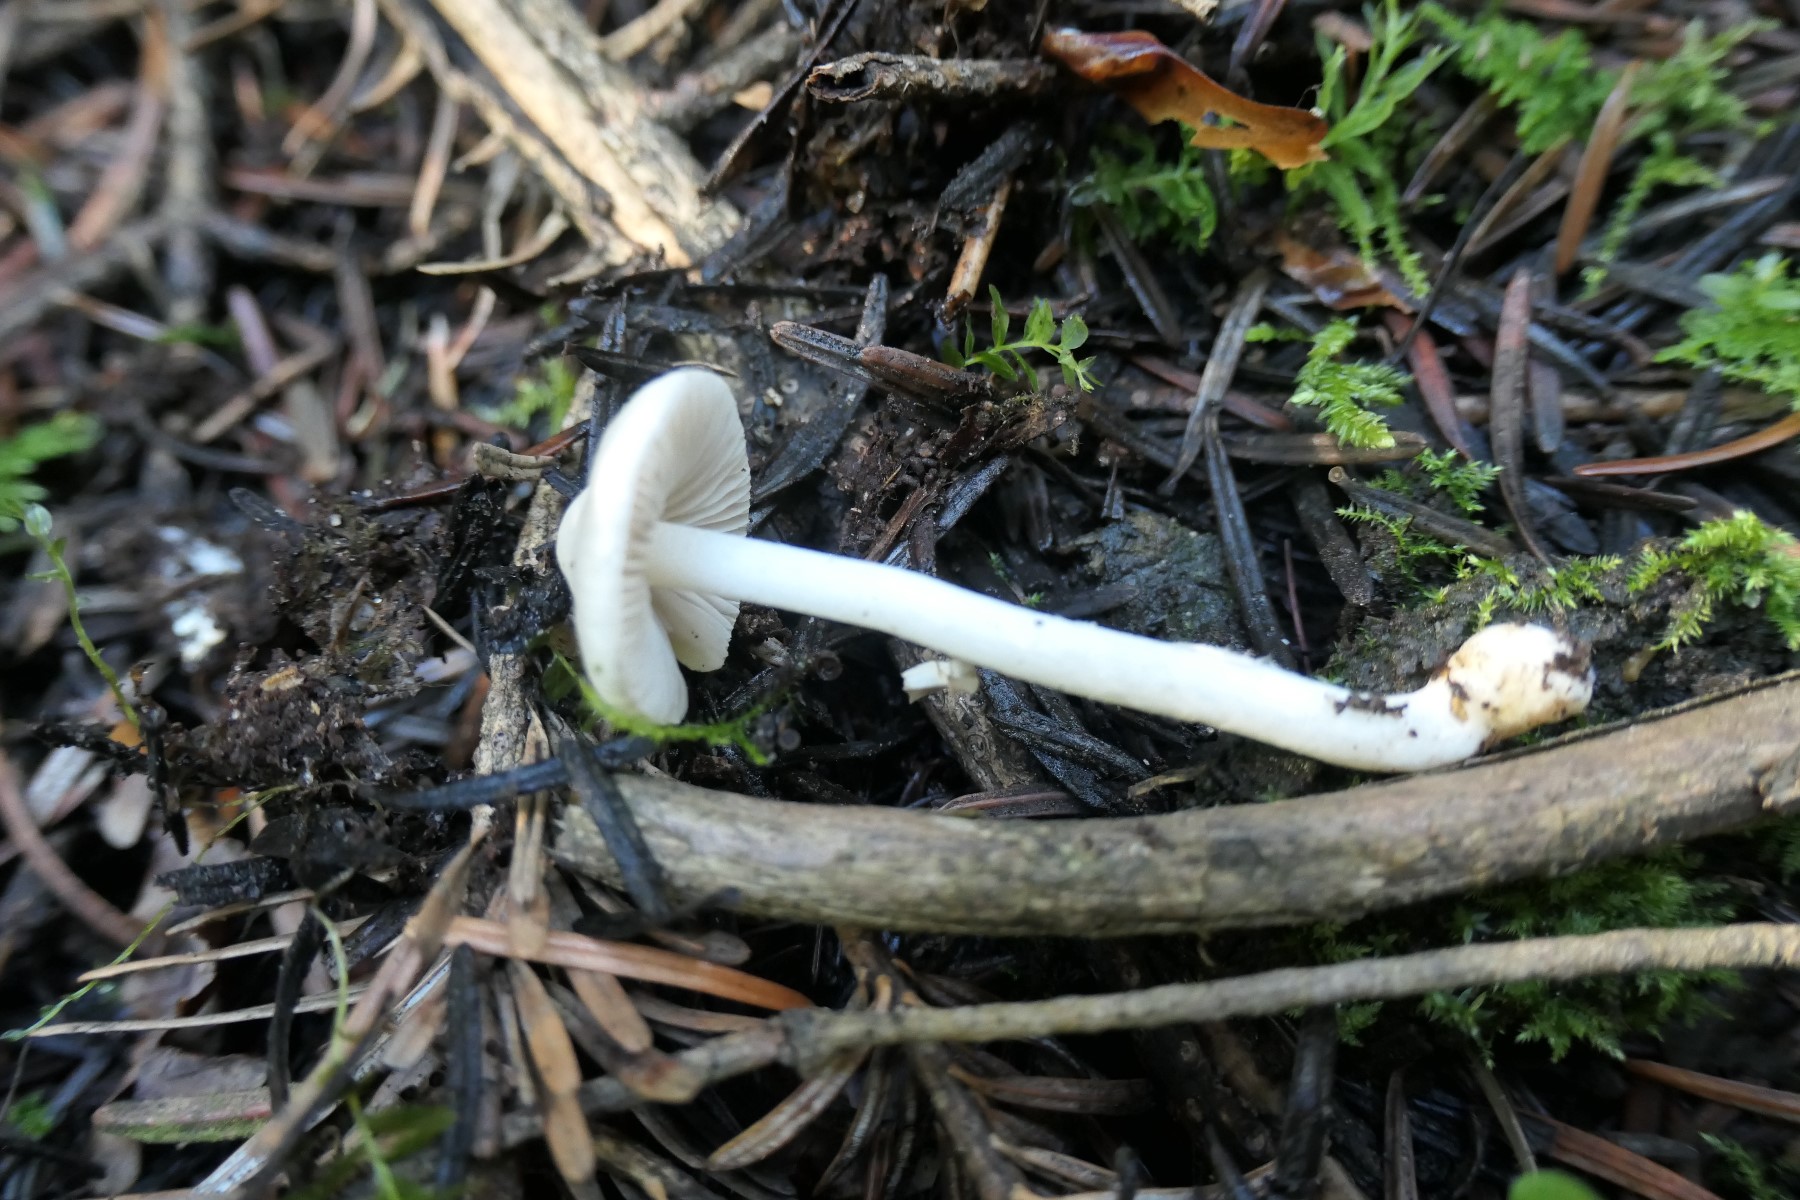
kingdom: Fungi
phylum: Basidiomycota
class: Agaricomycetes
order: Agaricales
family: Inocybaceae
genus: Inocybe
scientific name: Inocybe
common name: almindelig trævlhat
